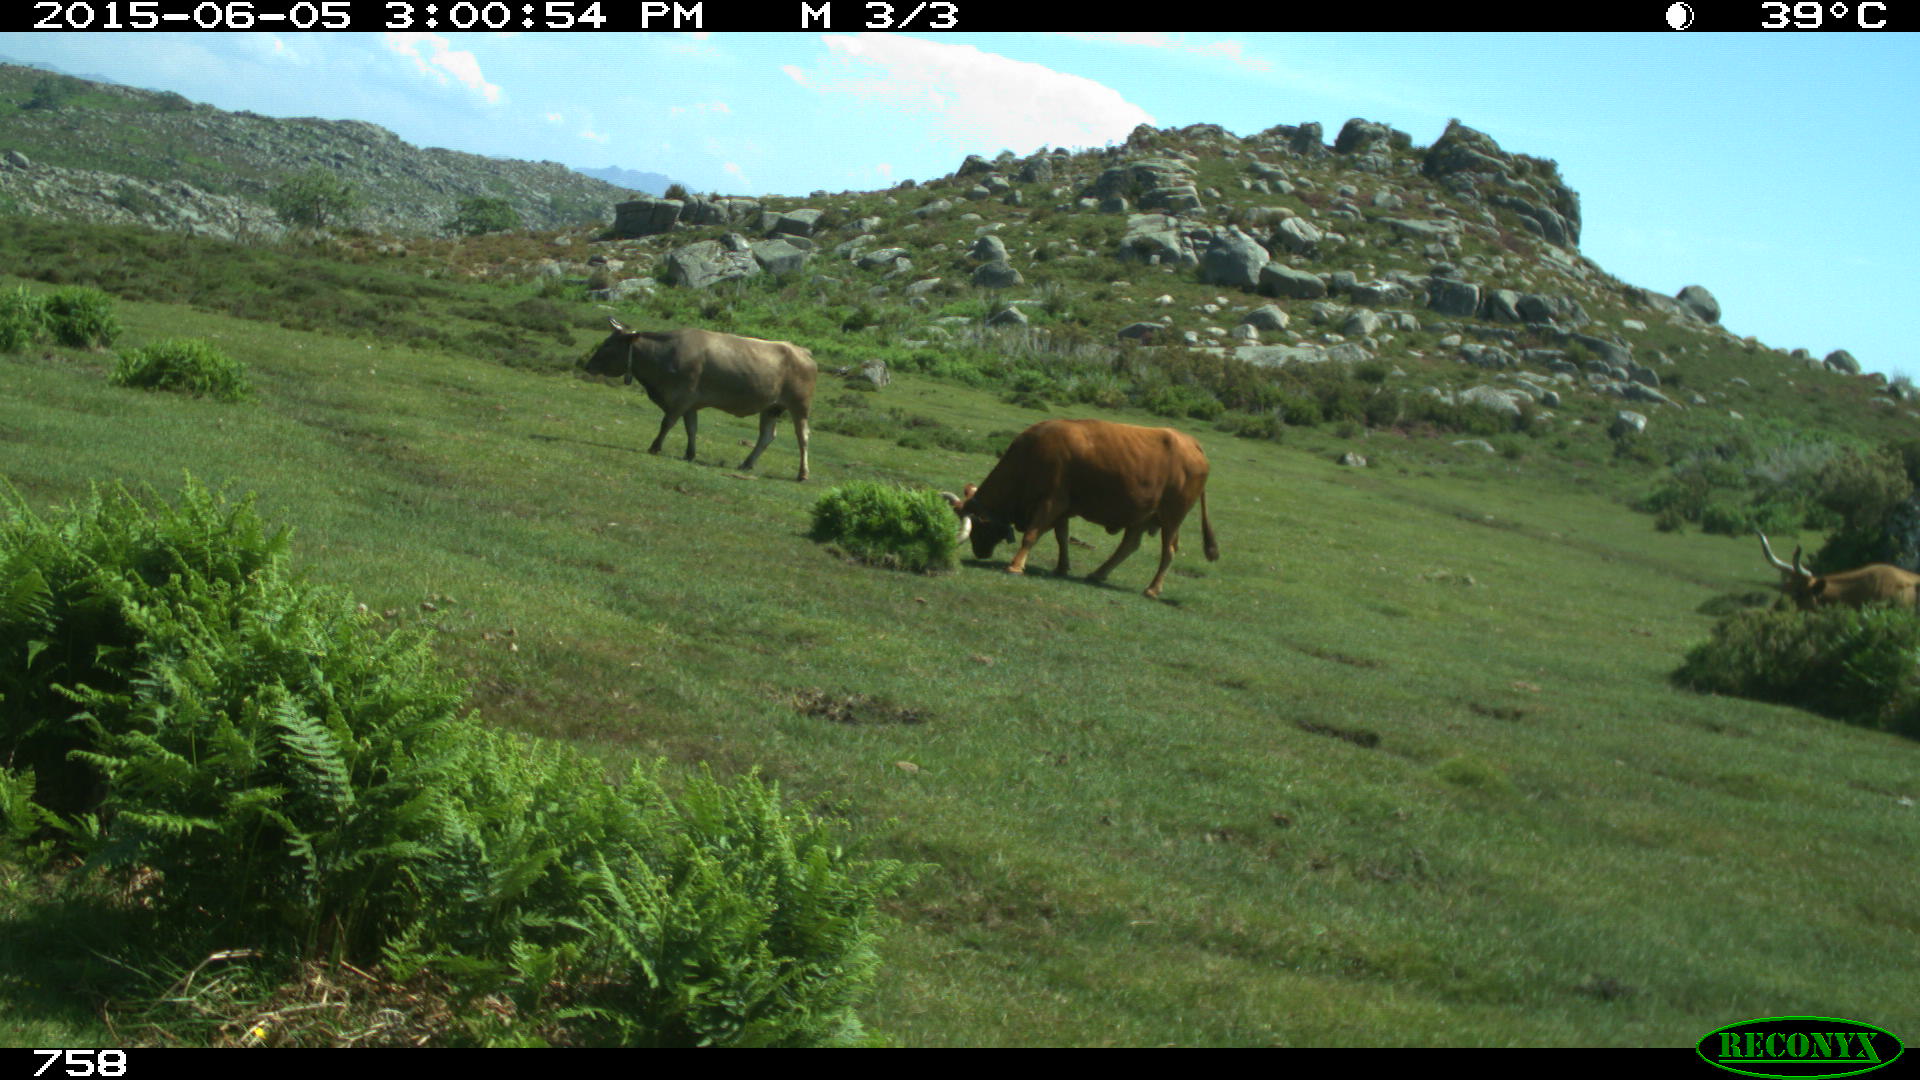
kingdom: Animalia
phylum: Chordata
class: Mammalia
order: Artiodactyla
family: Bovidae
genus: Bos
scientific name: Bos taurus
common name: Domesticated cattle
